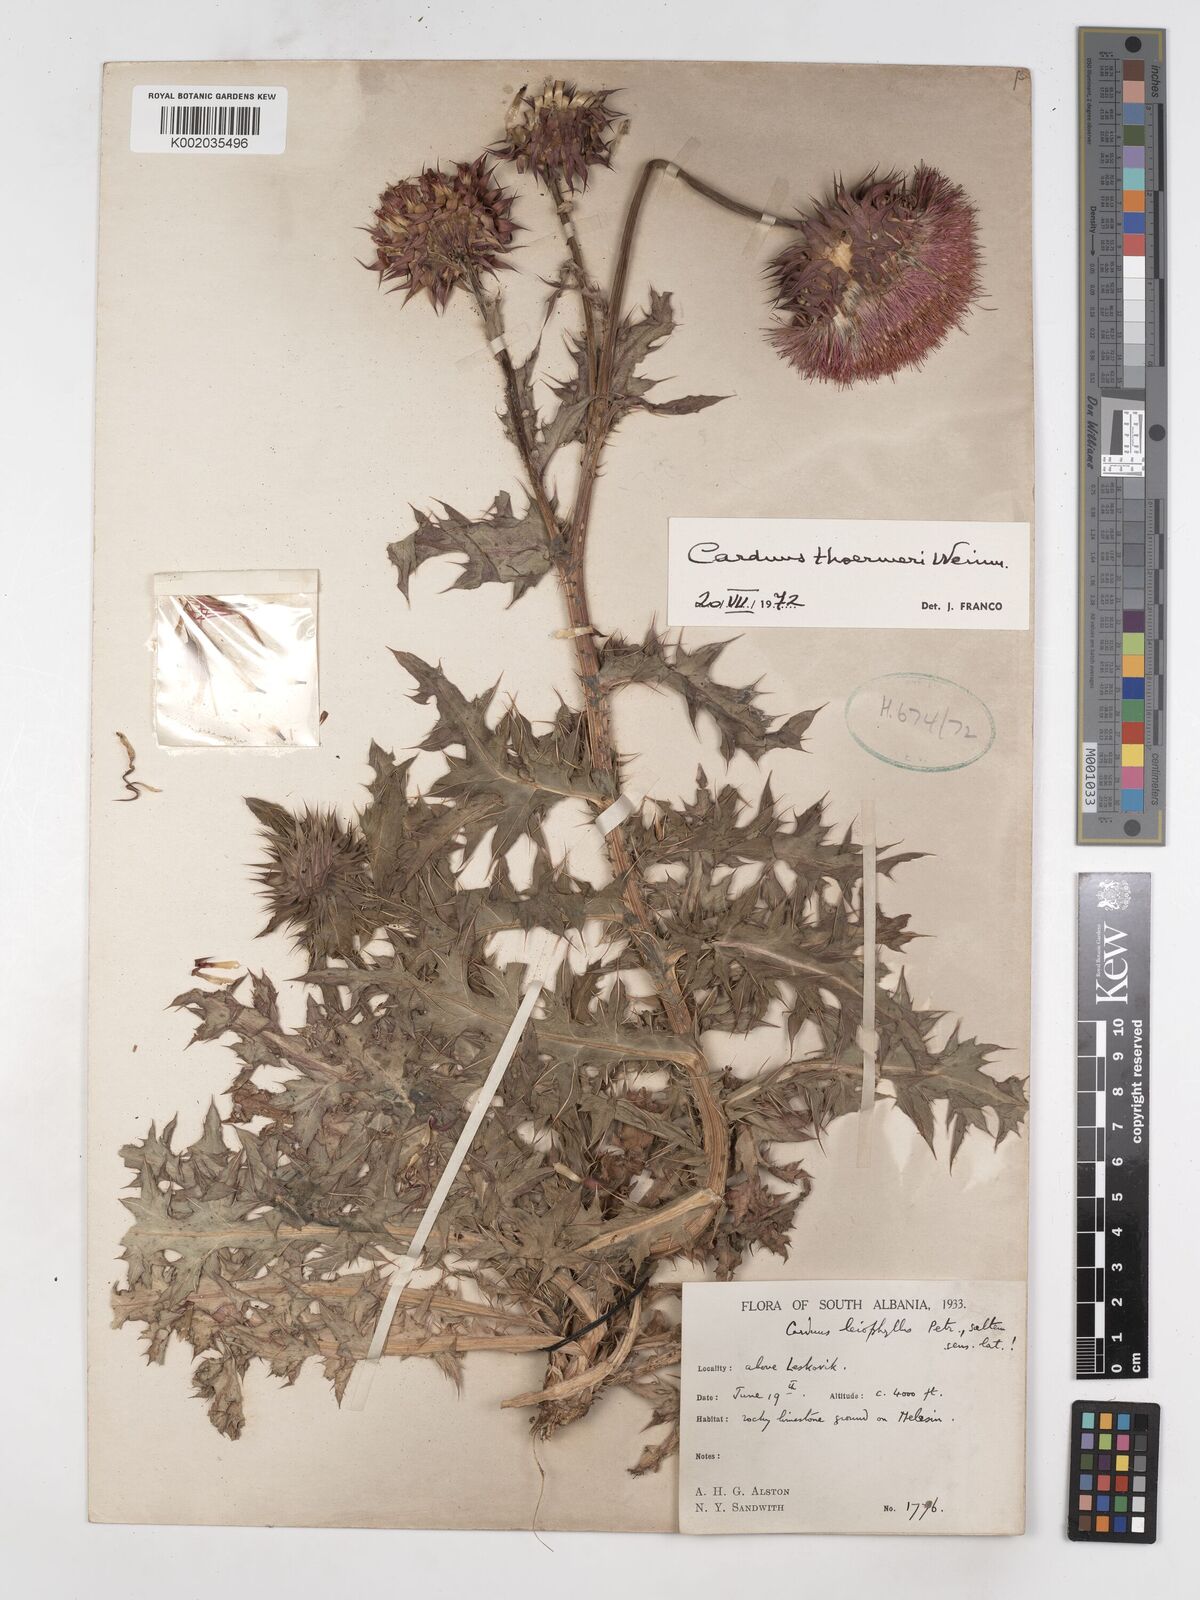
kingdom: Plantae
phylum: Tracheophyta
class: Magnoliopsida
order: Asterales
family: Asteraceae
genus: Carduus
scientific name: Carduus nutans
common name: Musk thistle
